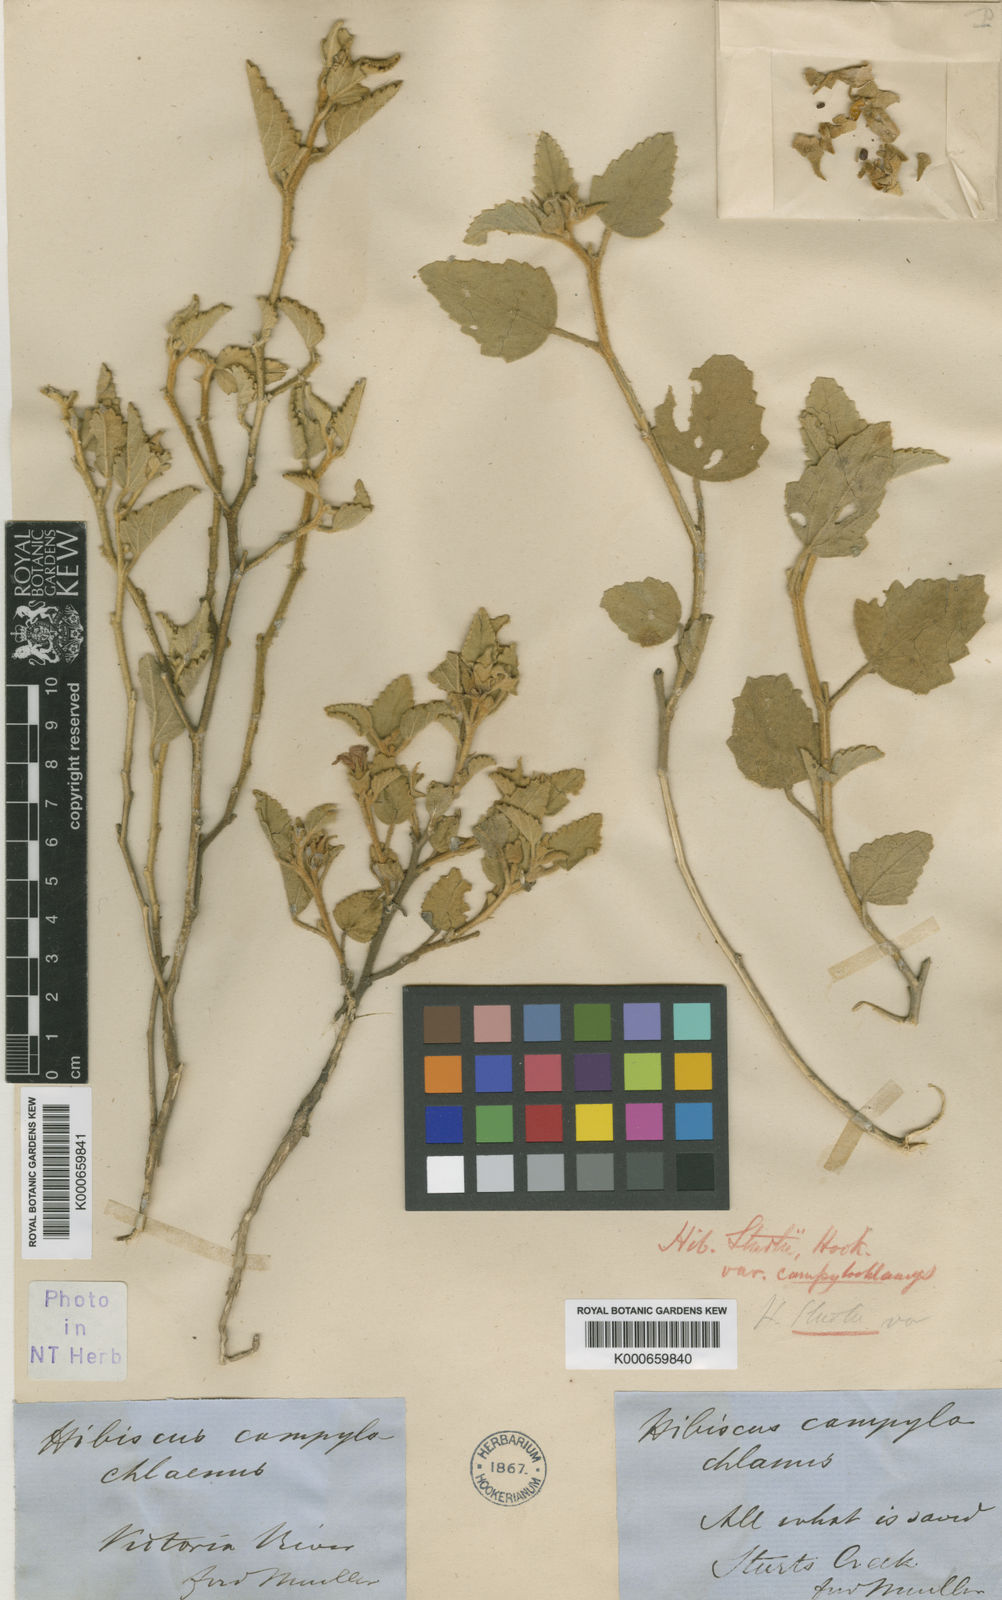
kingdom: Plantae
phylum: Tracheophyta
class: Magnoliopsida
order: Malvales
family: Malvaceae
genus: Hibiscus
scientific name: Hibiscus sturtii
